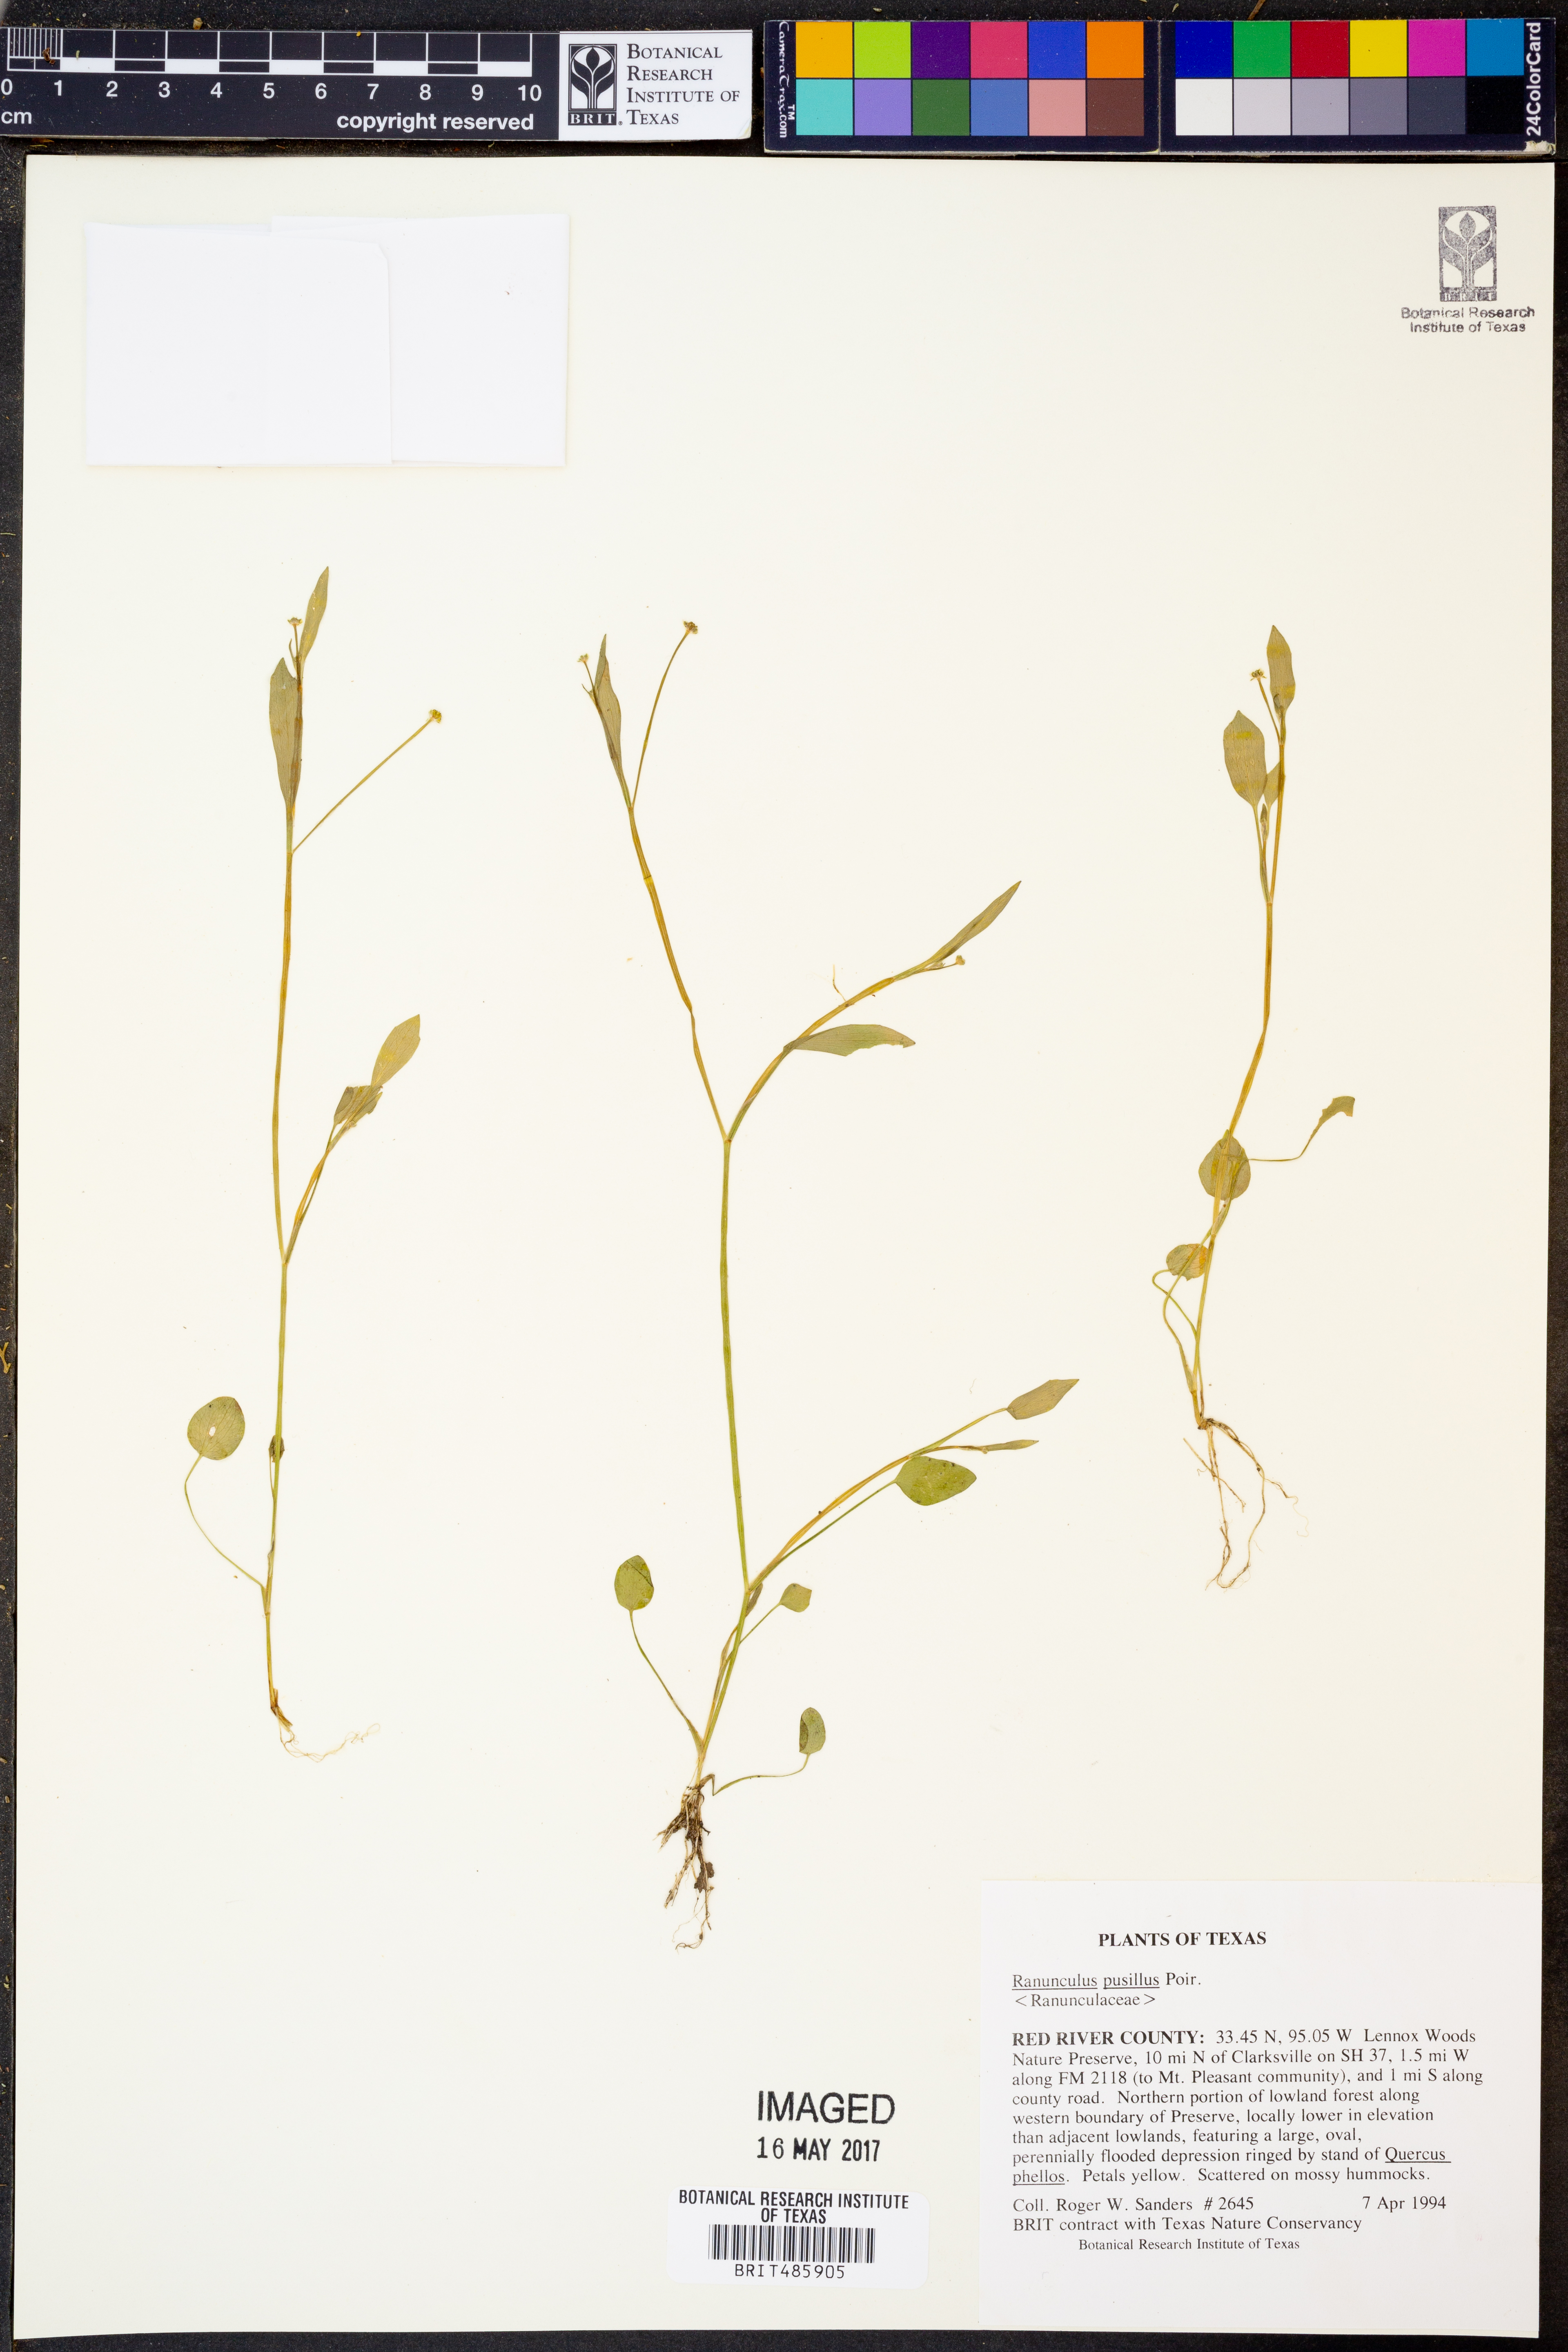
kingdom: Plantae
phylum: Tracheophyta
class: Magnoliopsida
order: Ranunculales
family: Ranunculaceae
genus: Ranunculus
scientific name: Ranunculus pusillus
